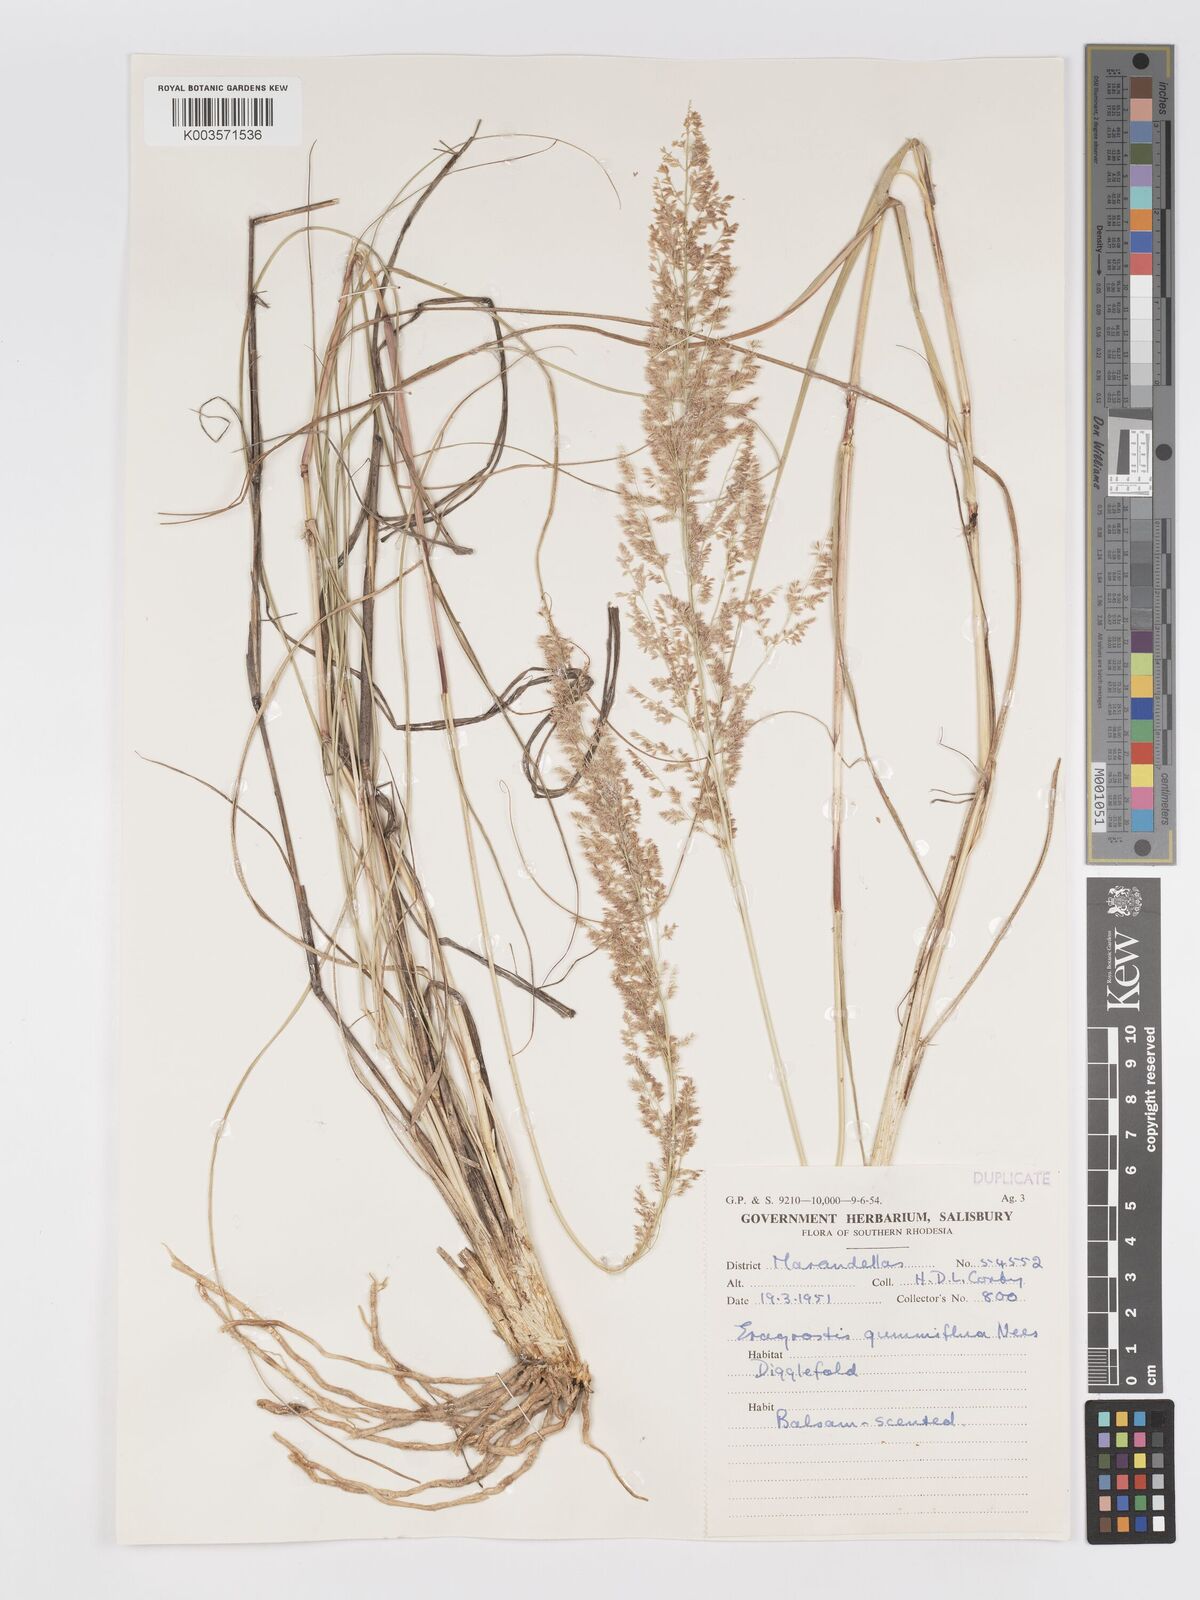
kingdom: Plantae
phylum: Tracheophyta
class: Liliopsida
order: Poales
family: Poaceae
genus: Eragrostis
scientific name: Eragrostis gummiflua
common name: Gum grass
